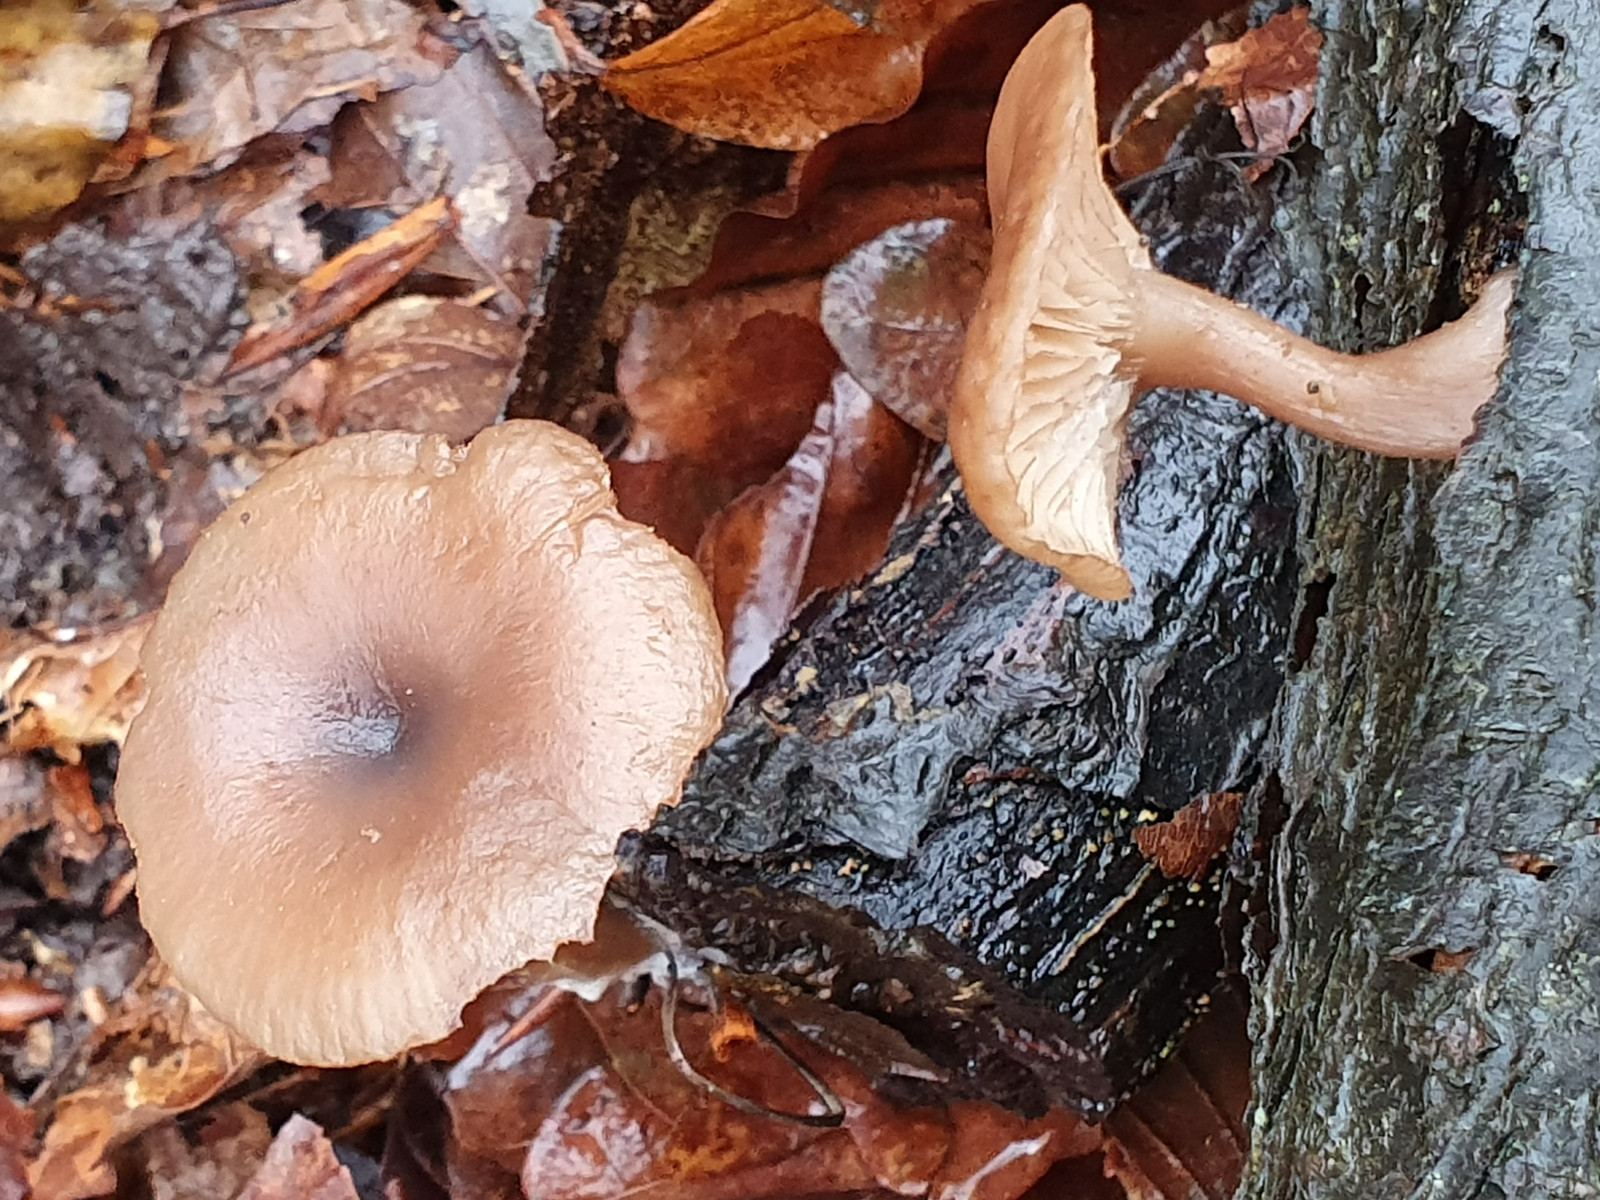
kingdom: Fungi
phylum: Basidiomycota
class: Agaricomycetes
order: Agaricales
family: Pseudoclitocybaceae
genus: Pseudoclitocybe
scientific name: Pseudoclitocybe cyathiformis
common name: almindelig bægertragthat
